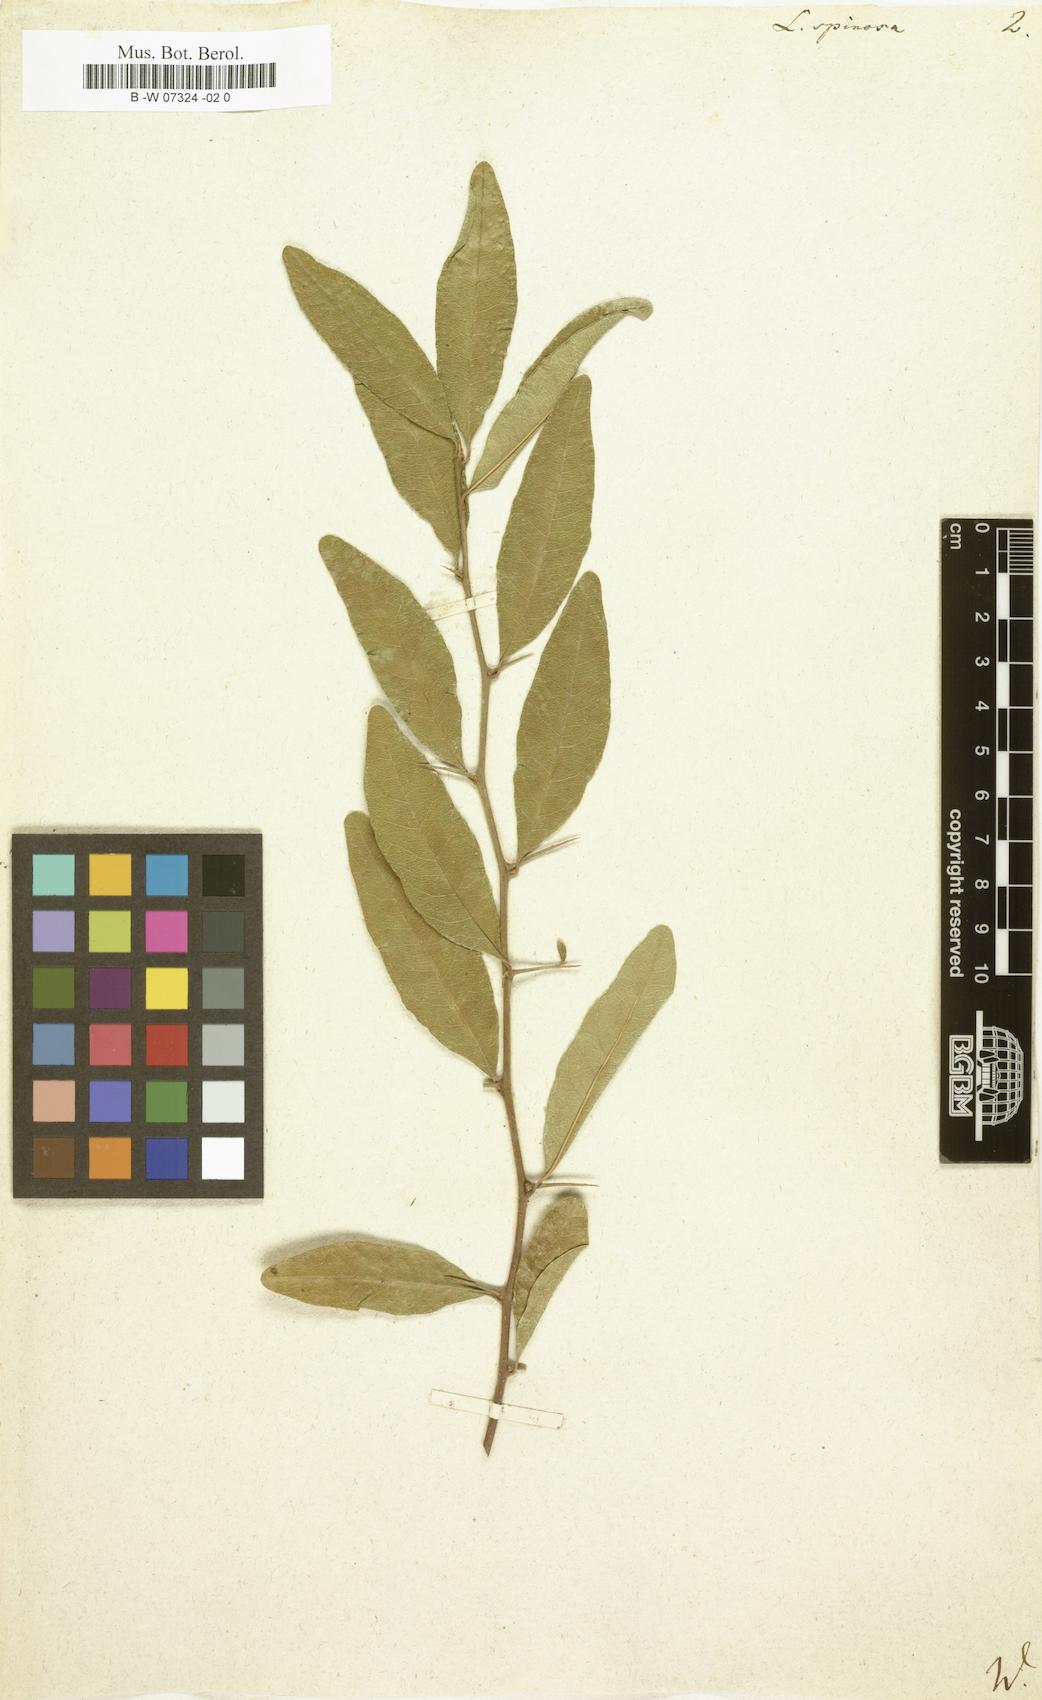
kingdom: Plantae
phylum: Tracheophyta
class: Magnoliopsida
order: Myrtales
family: Lythraceae
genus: Lawsonia
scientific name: Lawsonia inermis
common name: Henna
